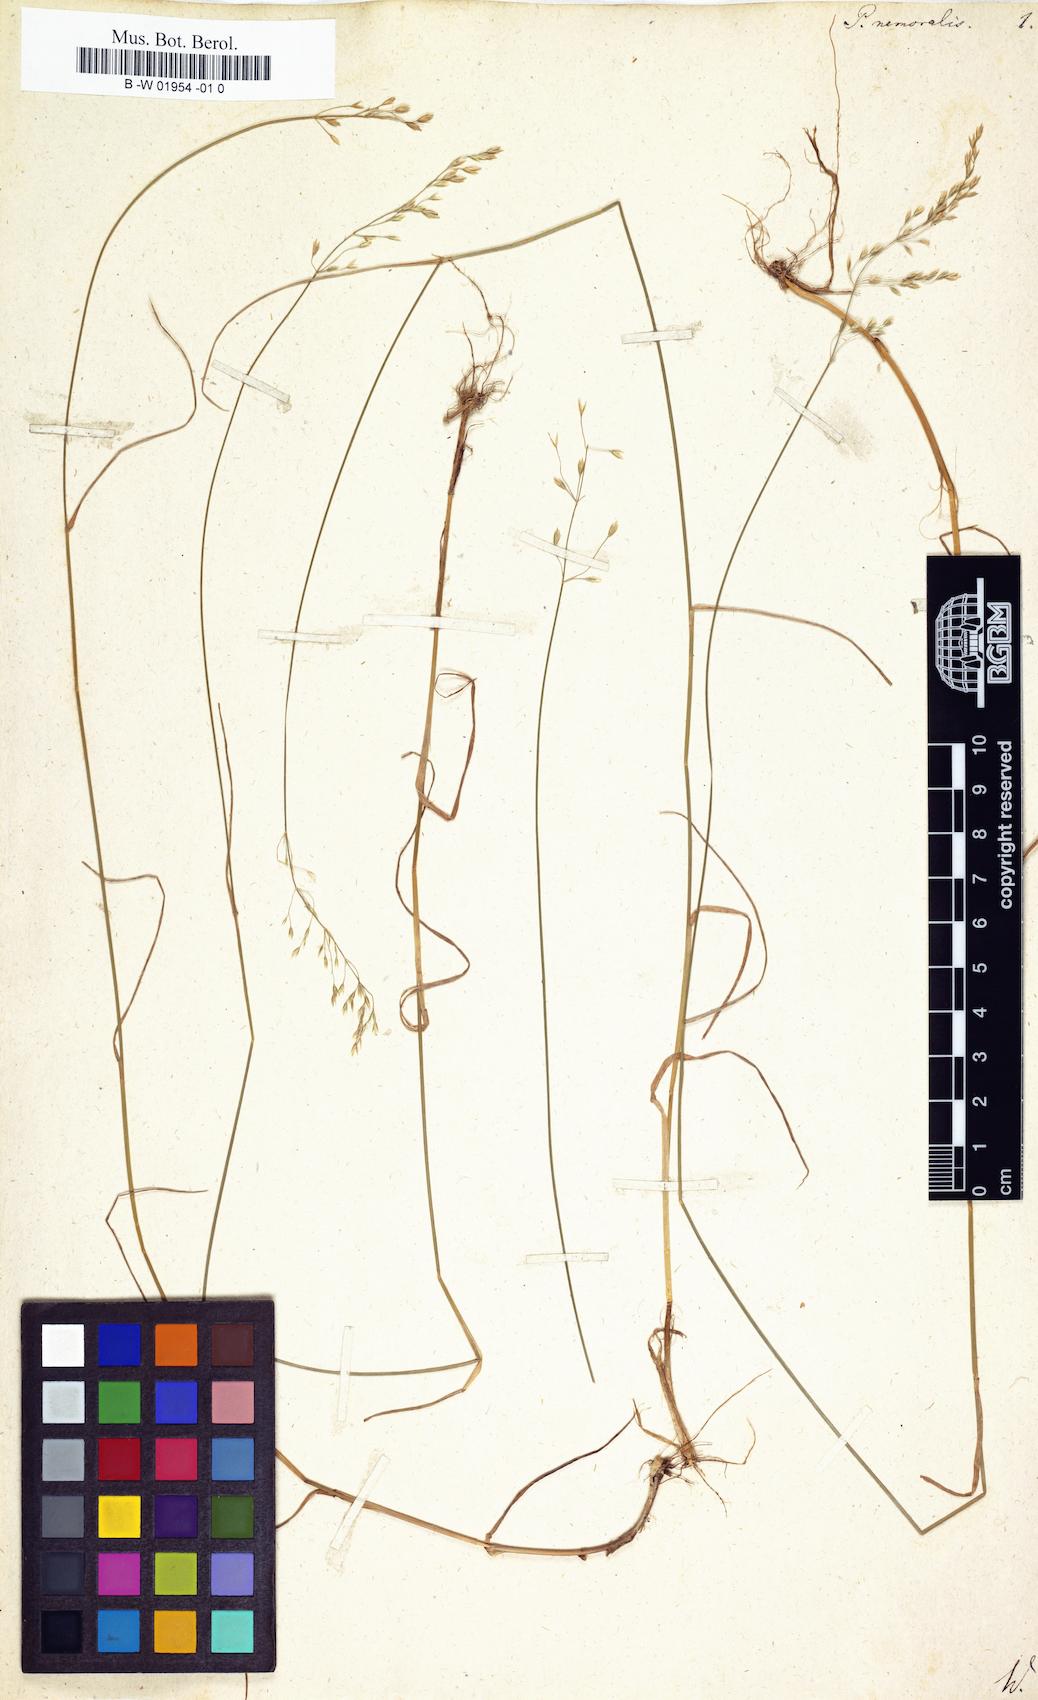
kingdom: Plantae
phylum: Tracheophyta
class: Liliopsida
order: Poales
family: Poaceae
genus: Poa
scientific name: Poa nemoralis
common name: Wood bluegrass
